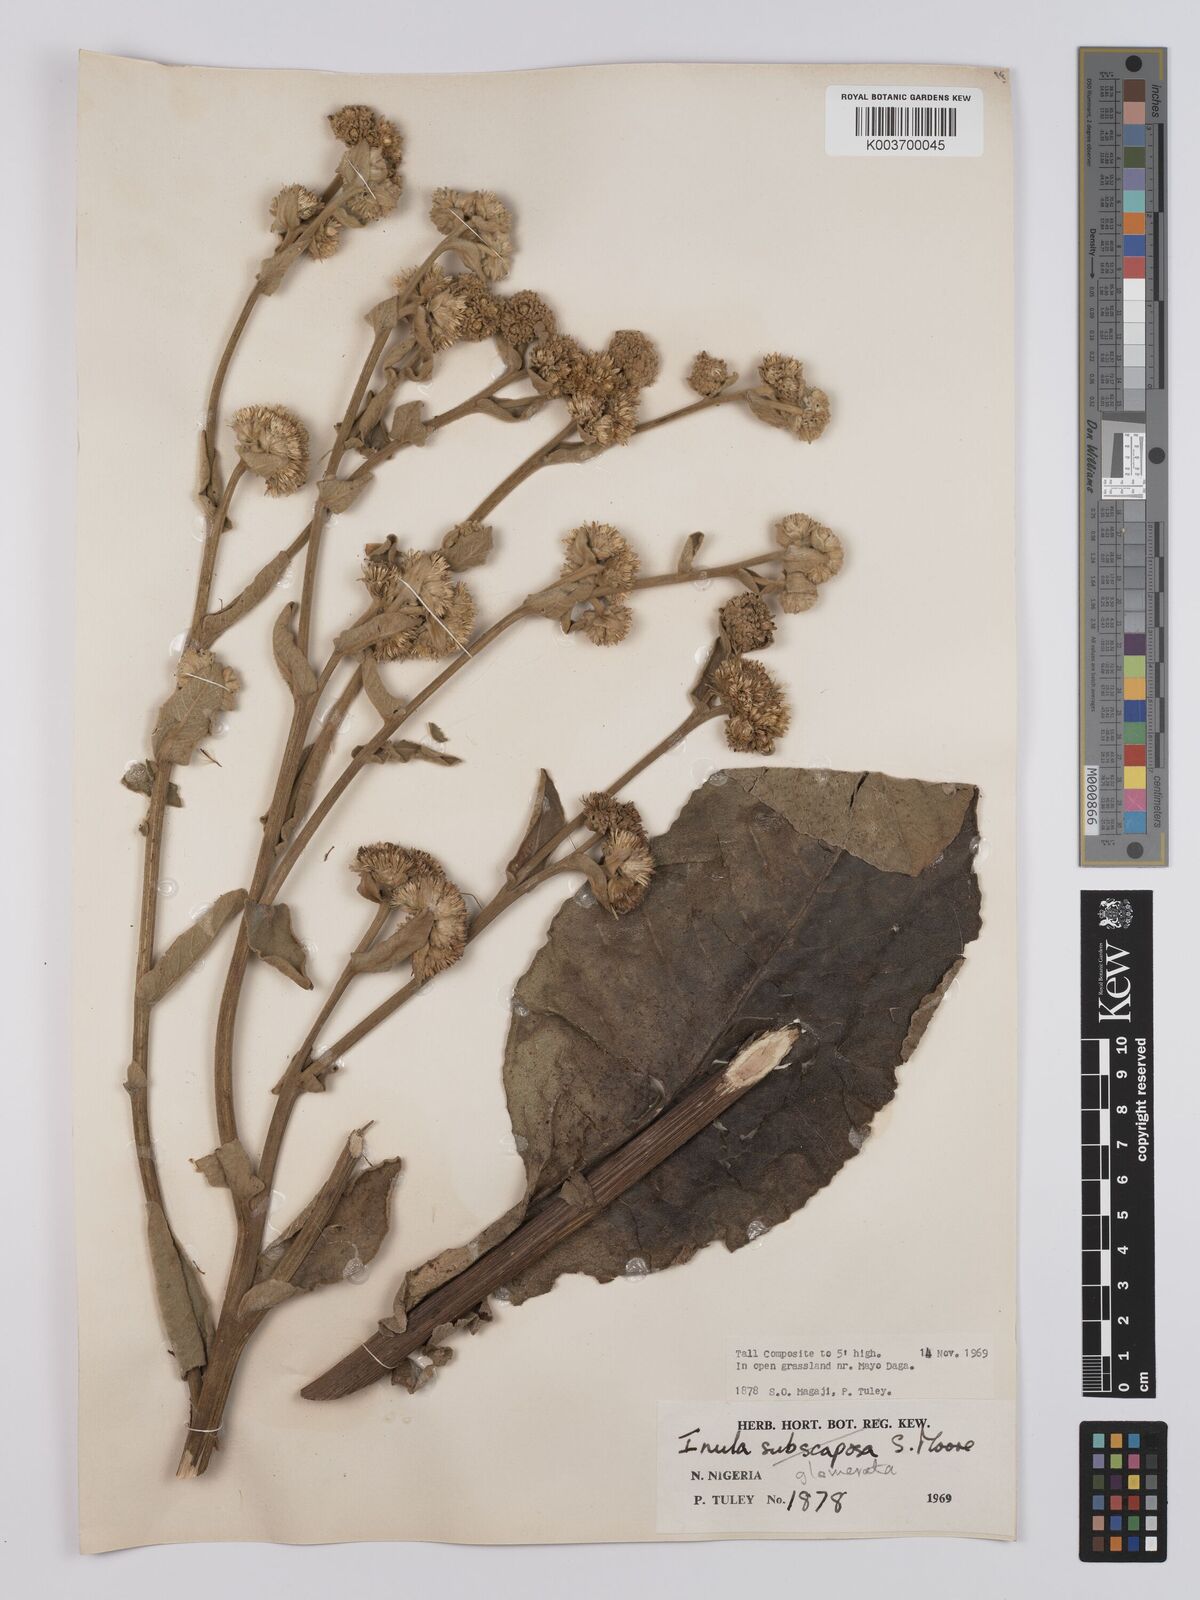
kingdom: Plantae
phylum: Tracheophyta
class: Magnoliopsida
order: Asterales
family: Asteraceae
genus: Inula
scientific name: Inula glomerata
